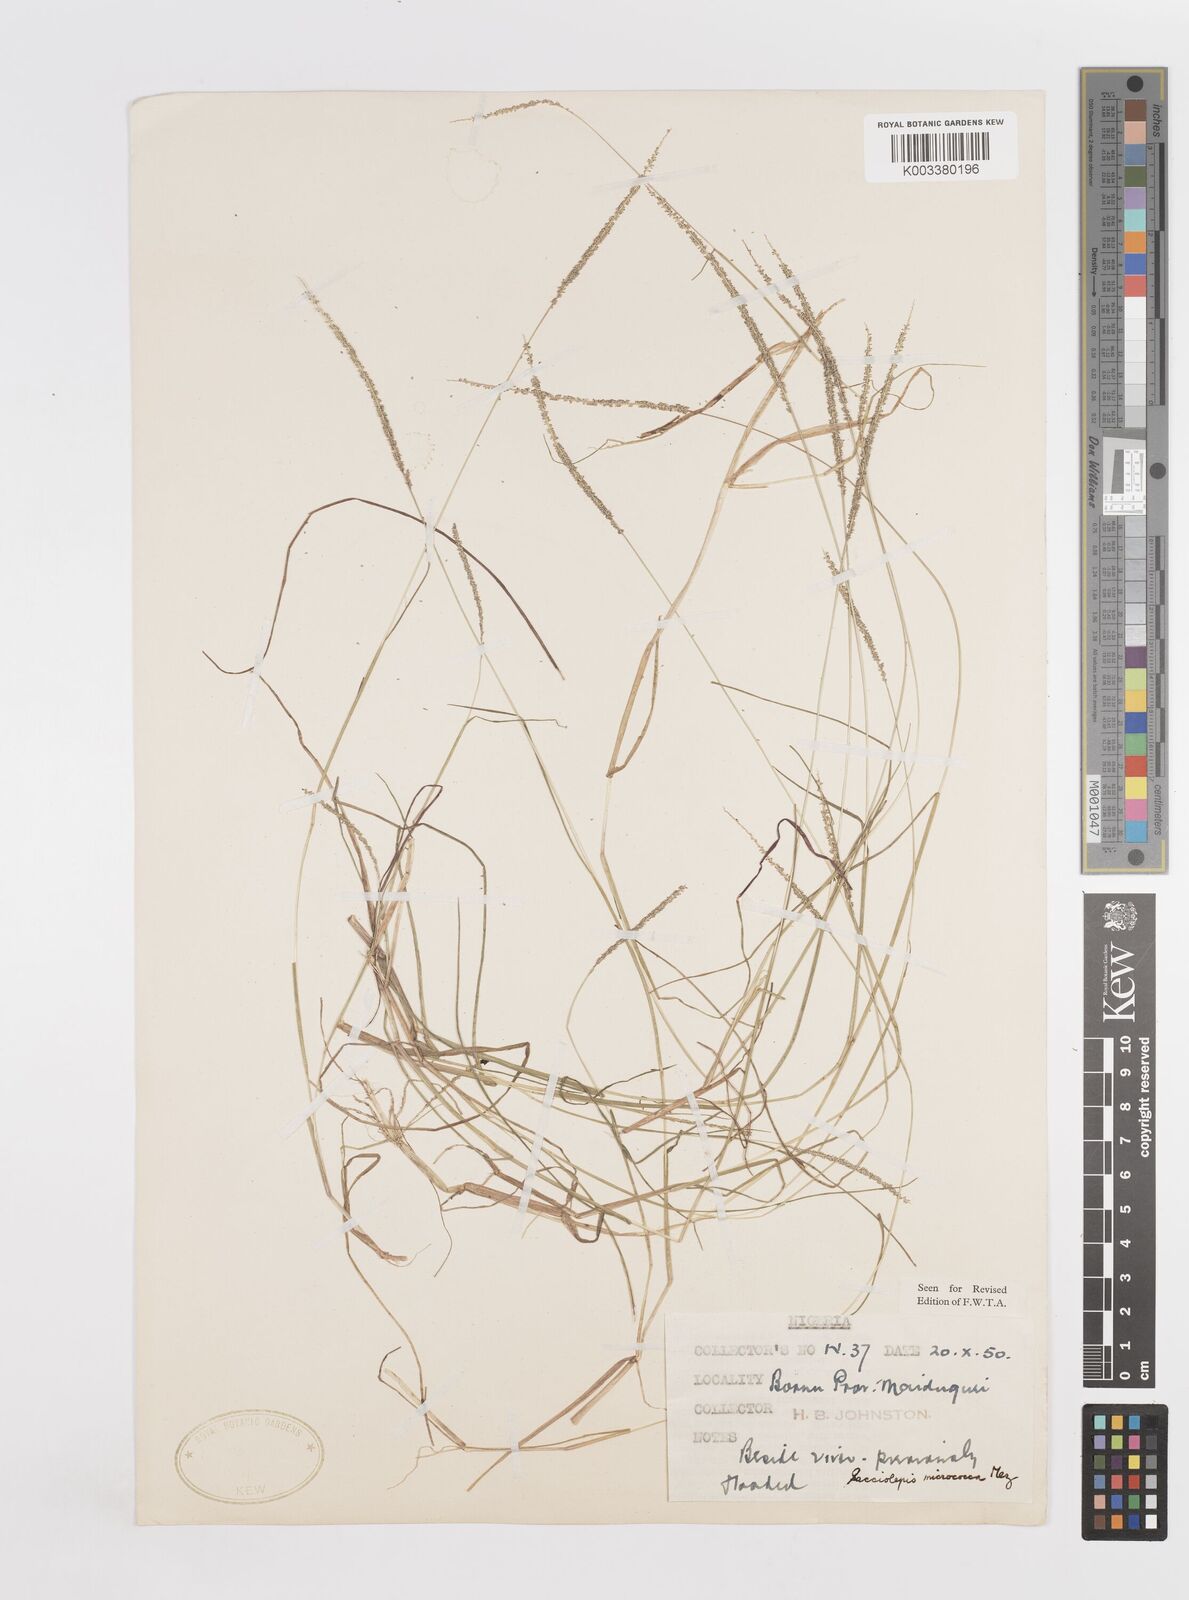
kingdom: Plantae
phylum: Tracheophyta
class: Liliopsida
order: Poales
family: Poaceae
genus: Sacciolepis
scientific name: Sacciolepis micrococca
